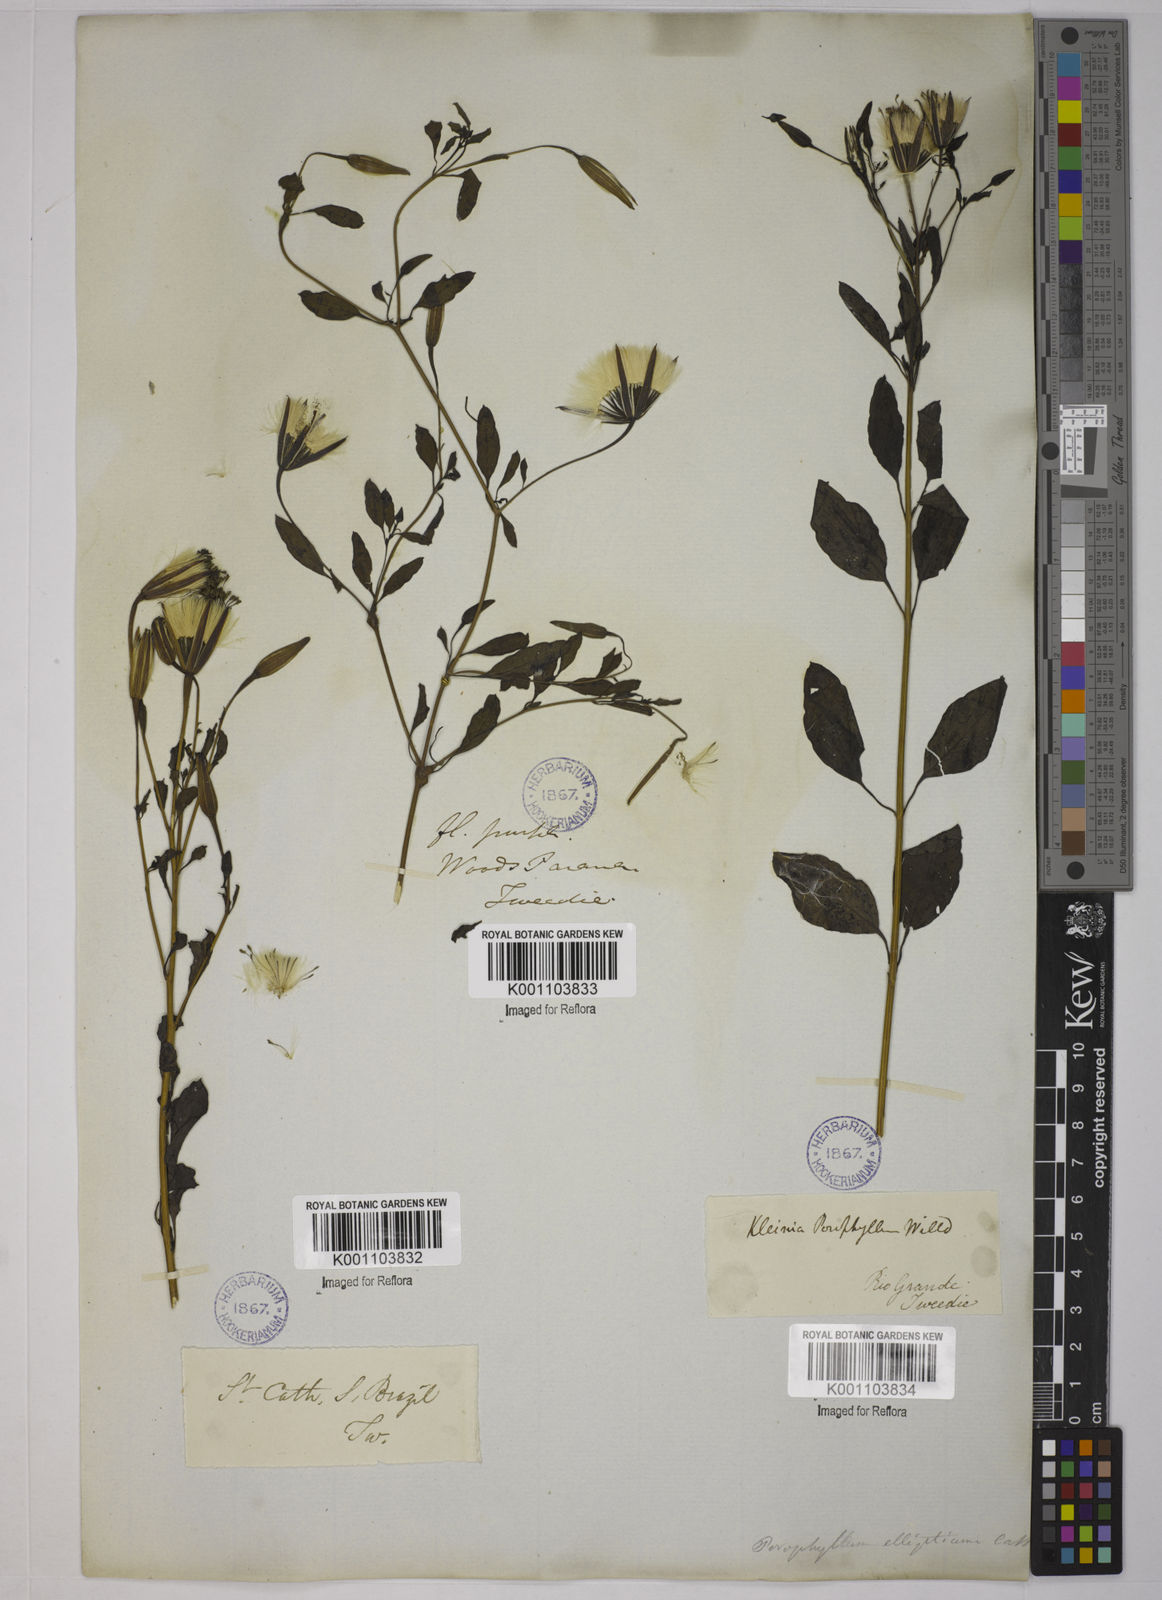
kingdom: Plantae
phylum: Tracheophyta
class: Magnoliopsida
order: Asterales
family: Asteraceae
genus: Porophyllum
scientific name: Porophyllum ruderale
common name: Yerba porosa
